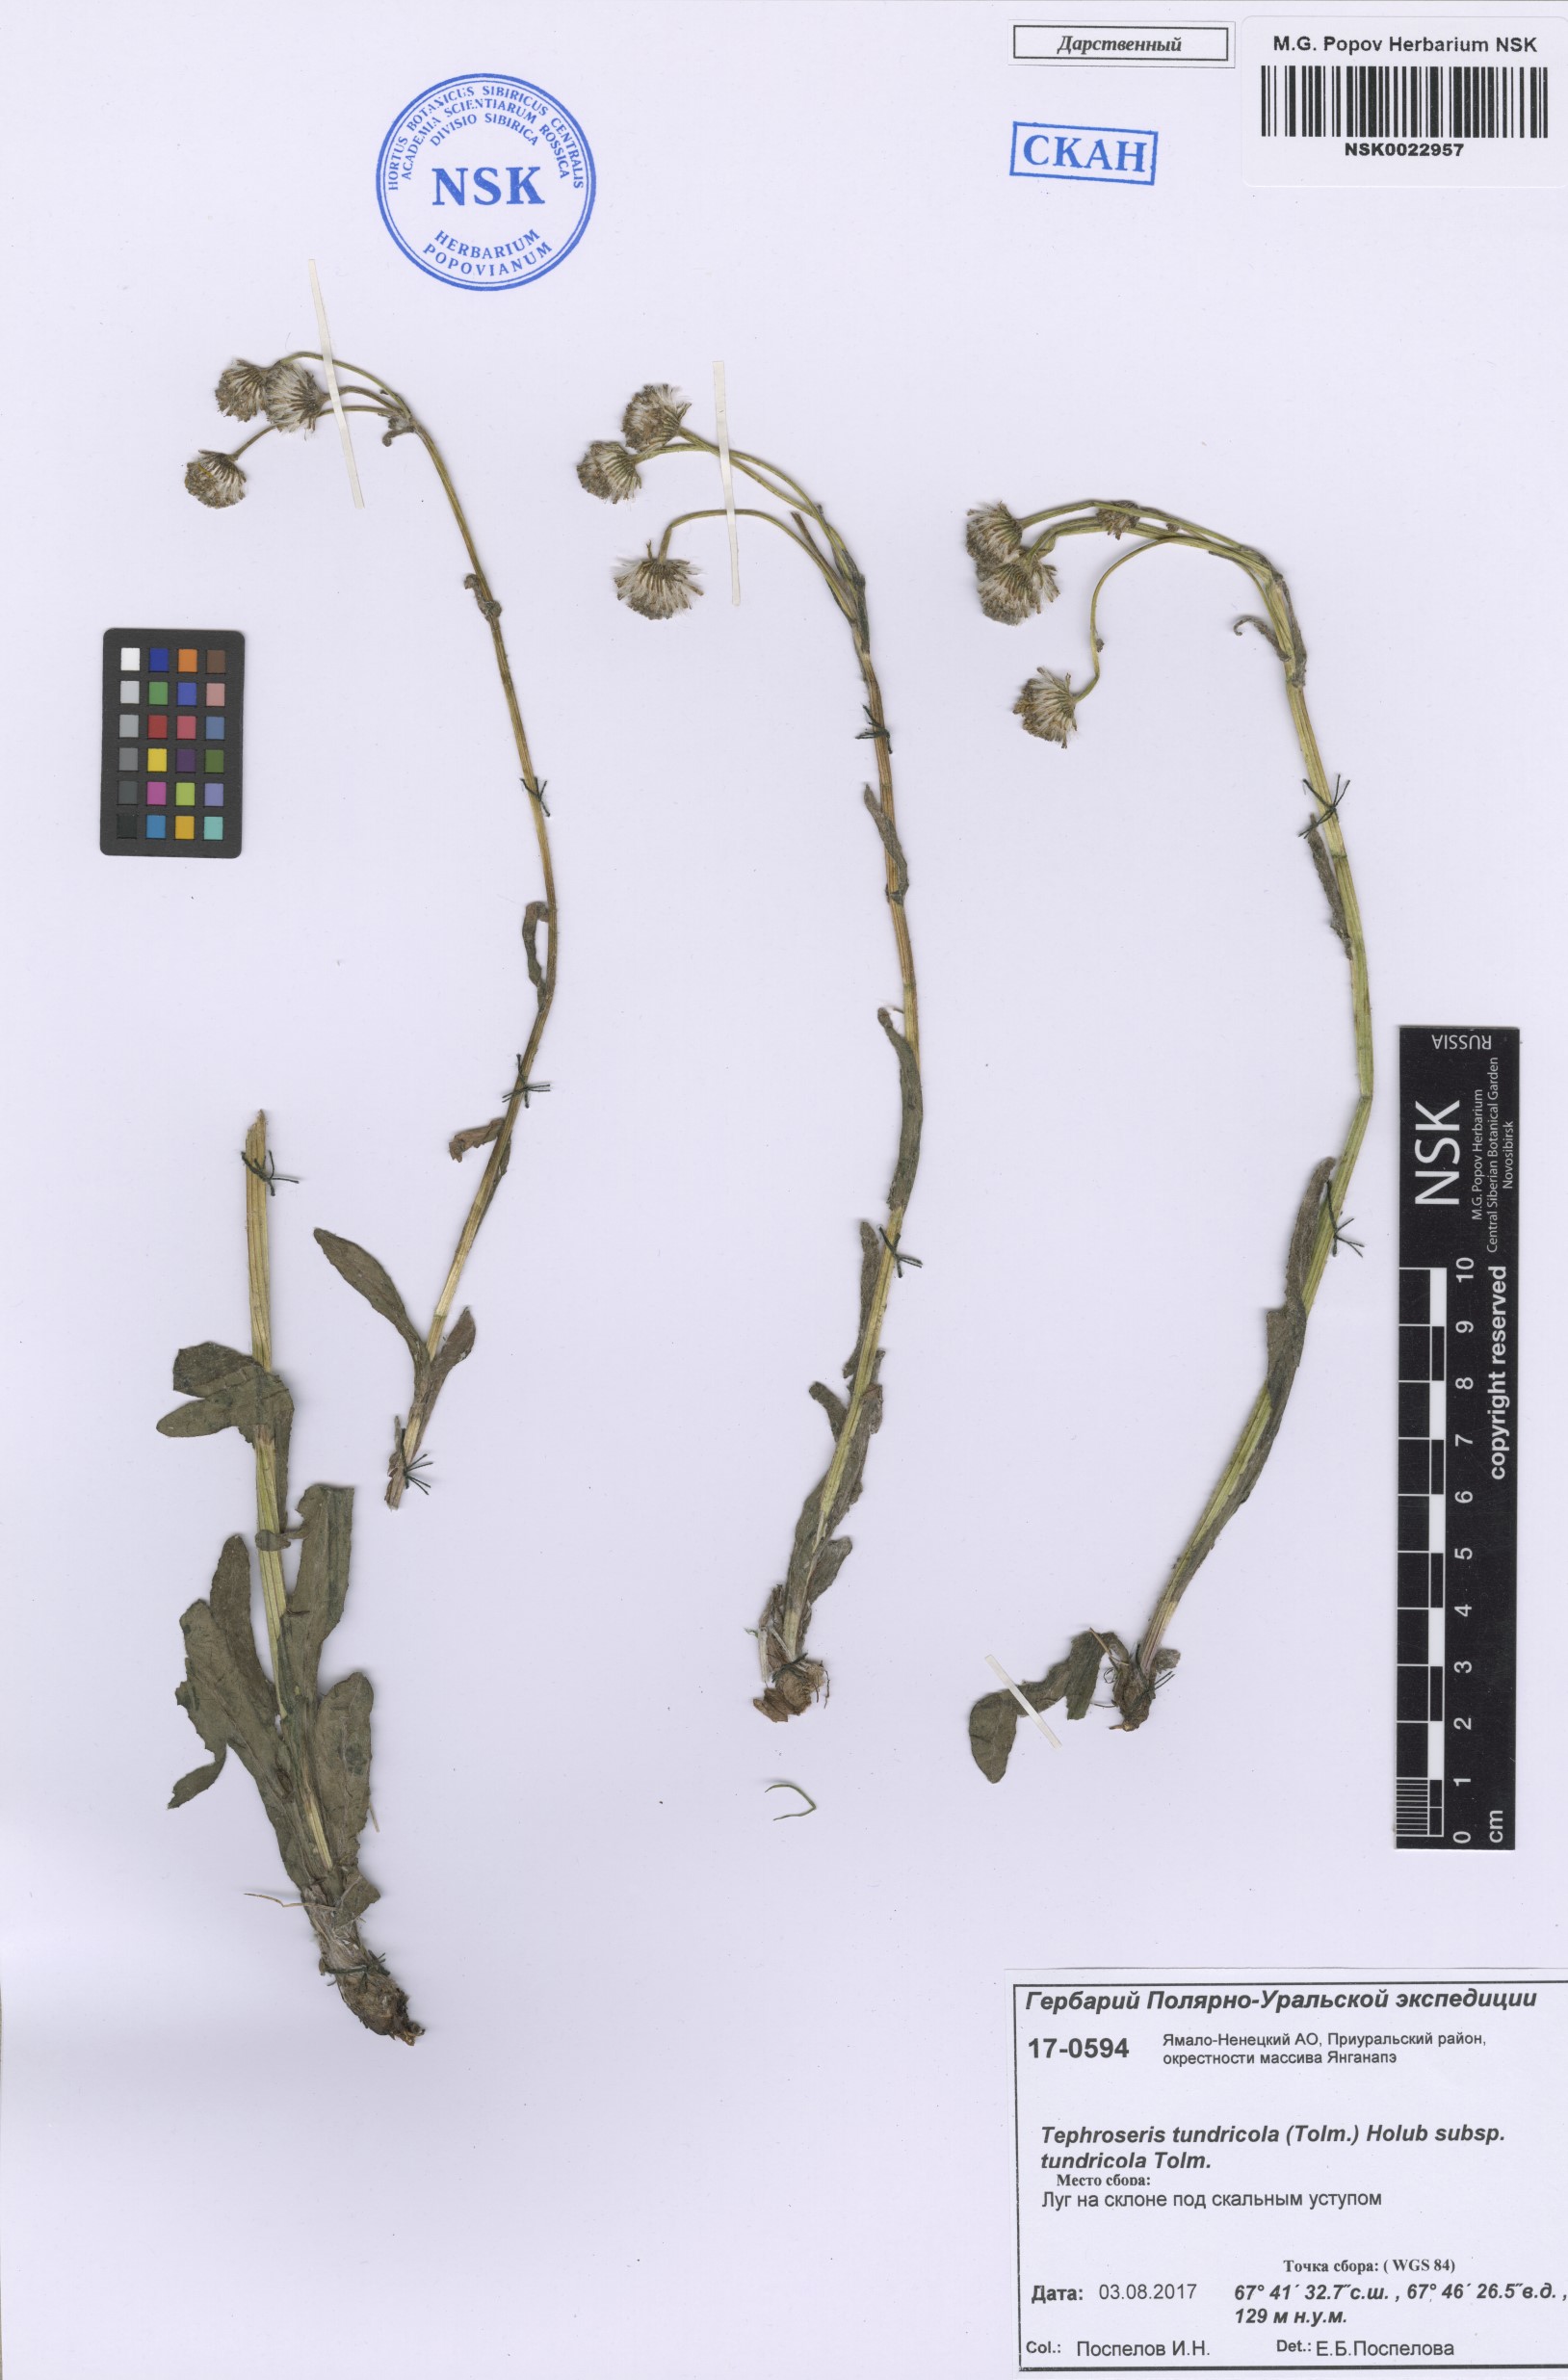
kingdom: Plantae
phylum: Tracheophyta
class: Magnoliopsida
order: Asterales
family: Asteraceae
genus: Tephroseris
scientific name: Tephroseris integrifolia
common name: Field fleawort
